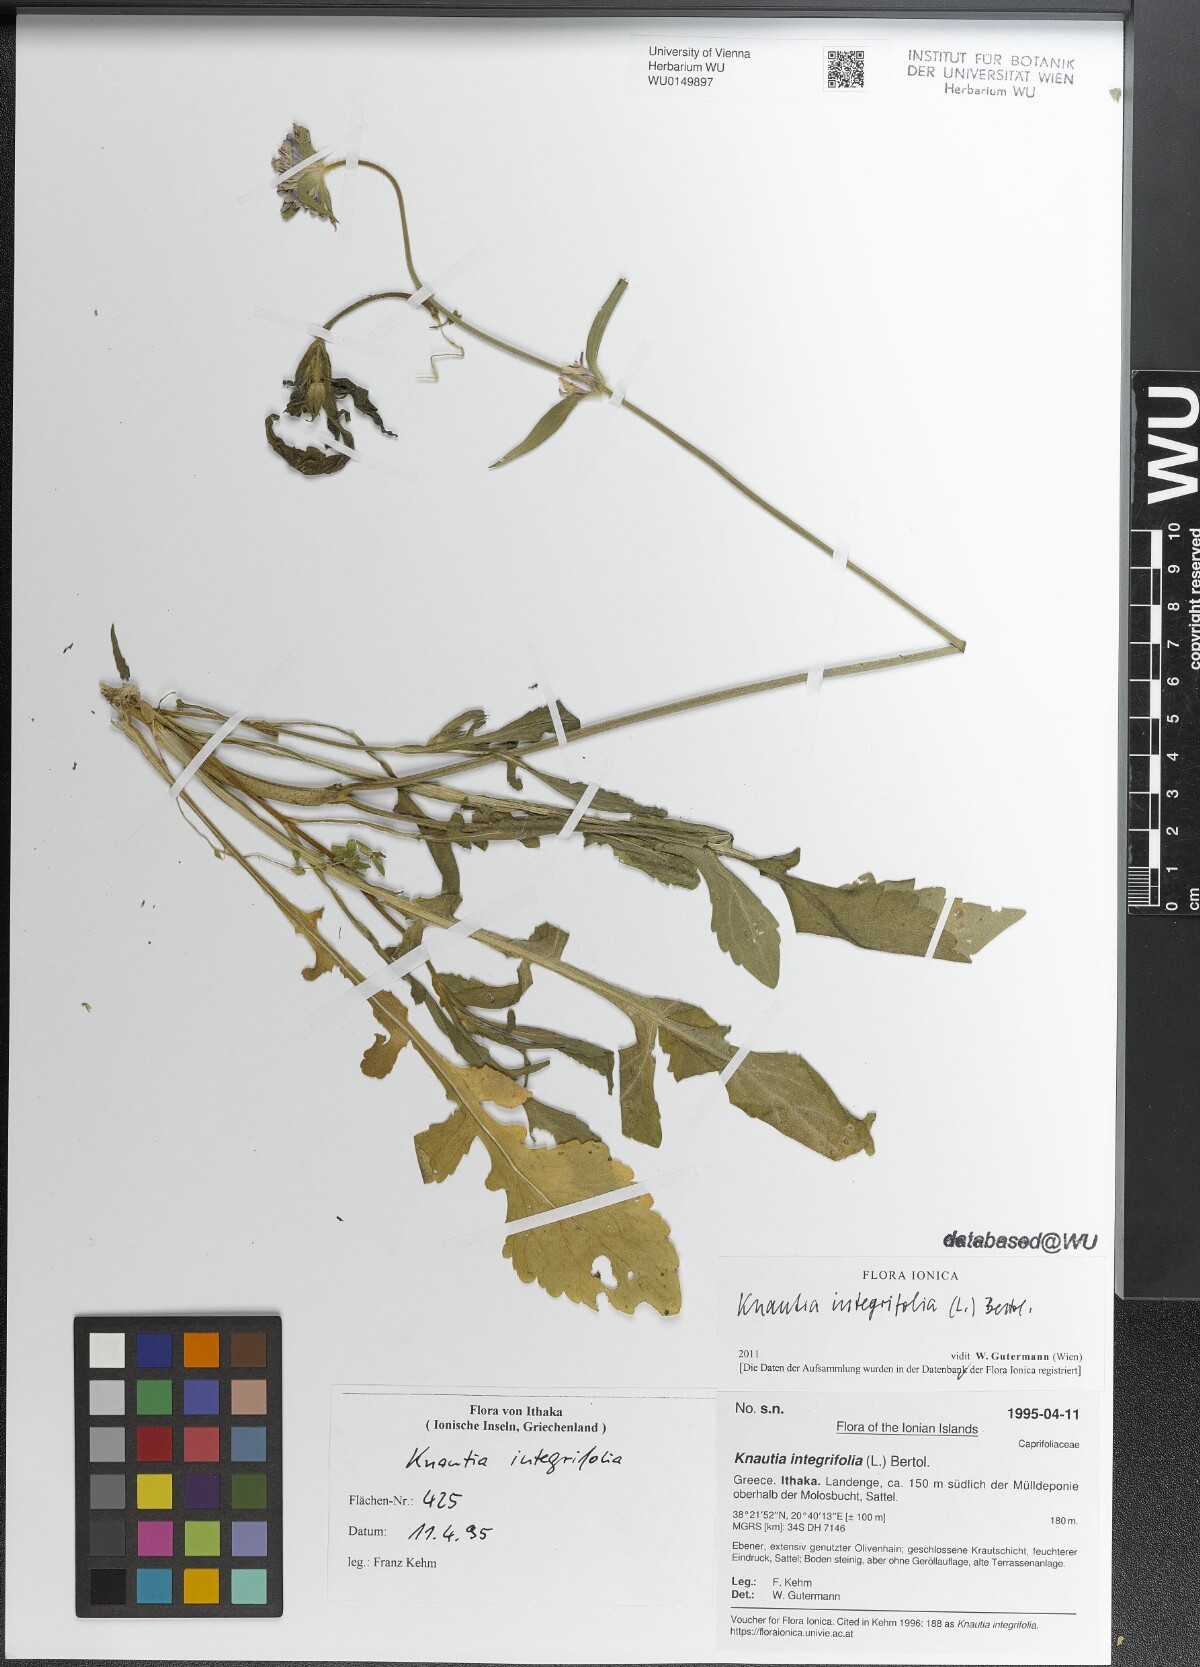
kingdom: Plantae
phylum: Tracheophyta
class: Magnoliopsida
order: Dipsacales
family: Caprifoliaceae
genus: Knautia
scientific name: Knautia integrifolia
